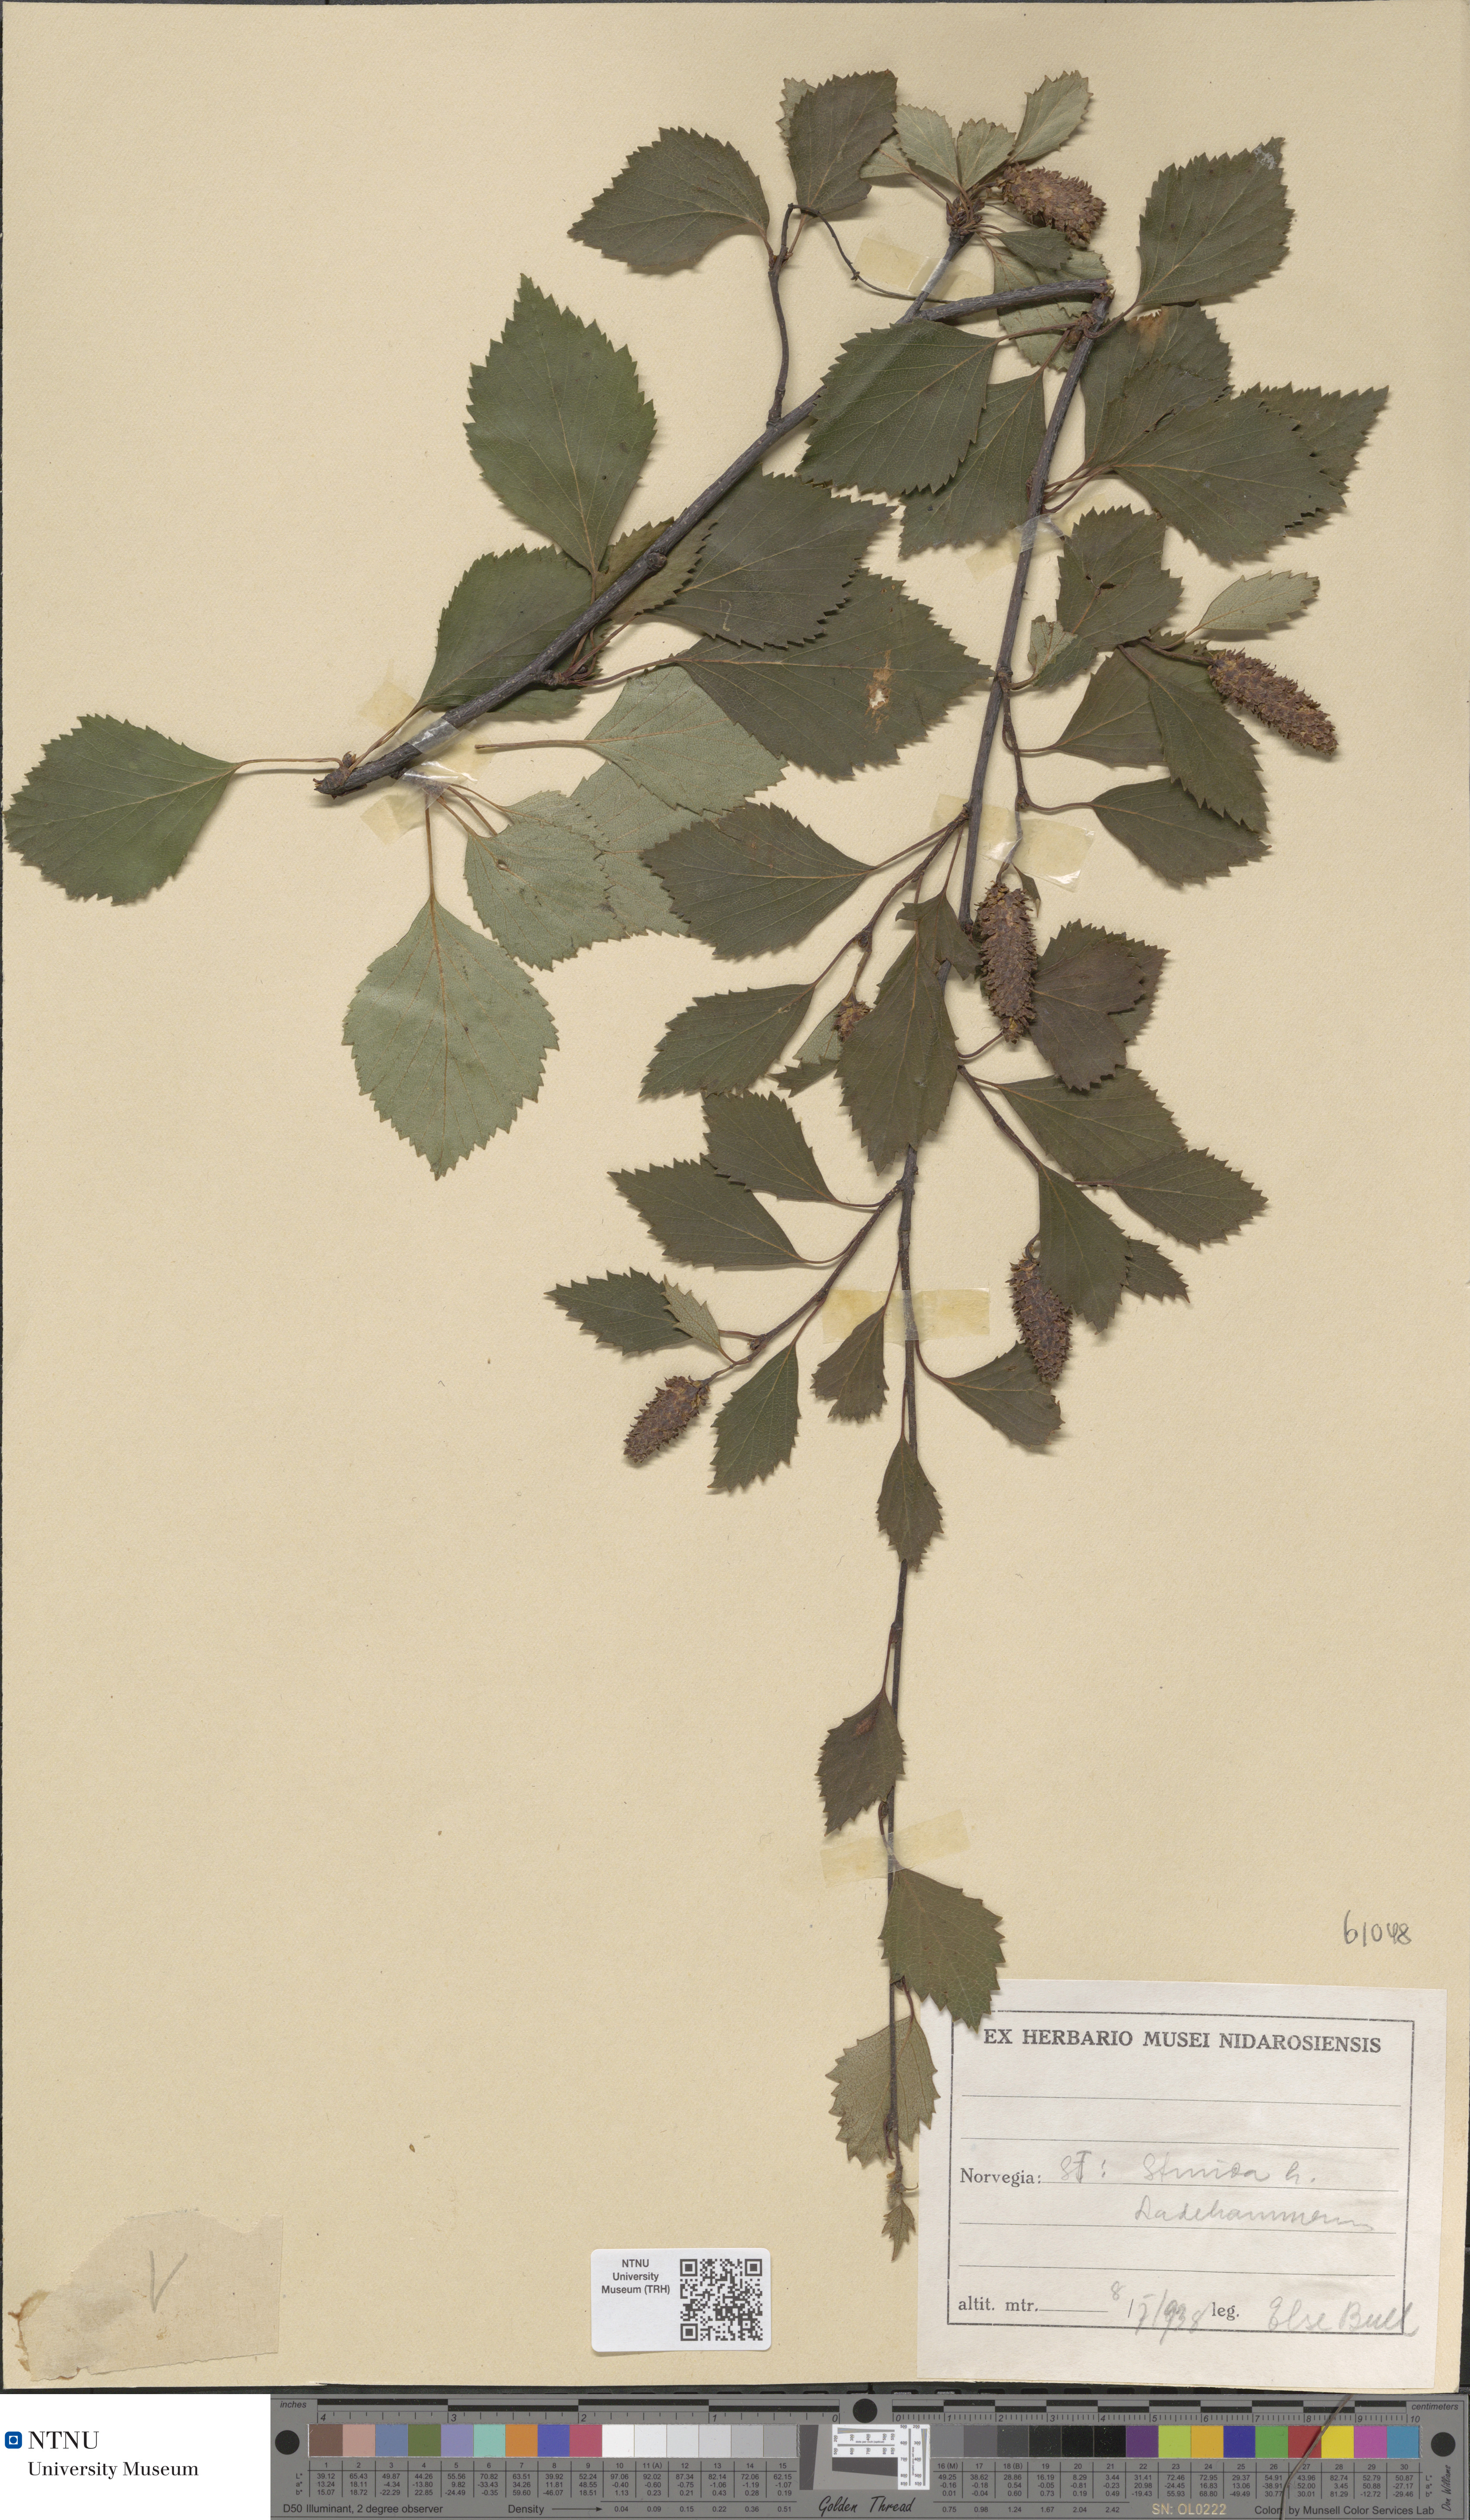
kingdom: Plantae
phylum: Tracheophyta
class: Magnoliopsida
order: Fagales
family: Betulaceae
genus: Betula
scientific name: Betula
